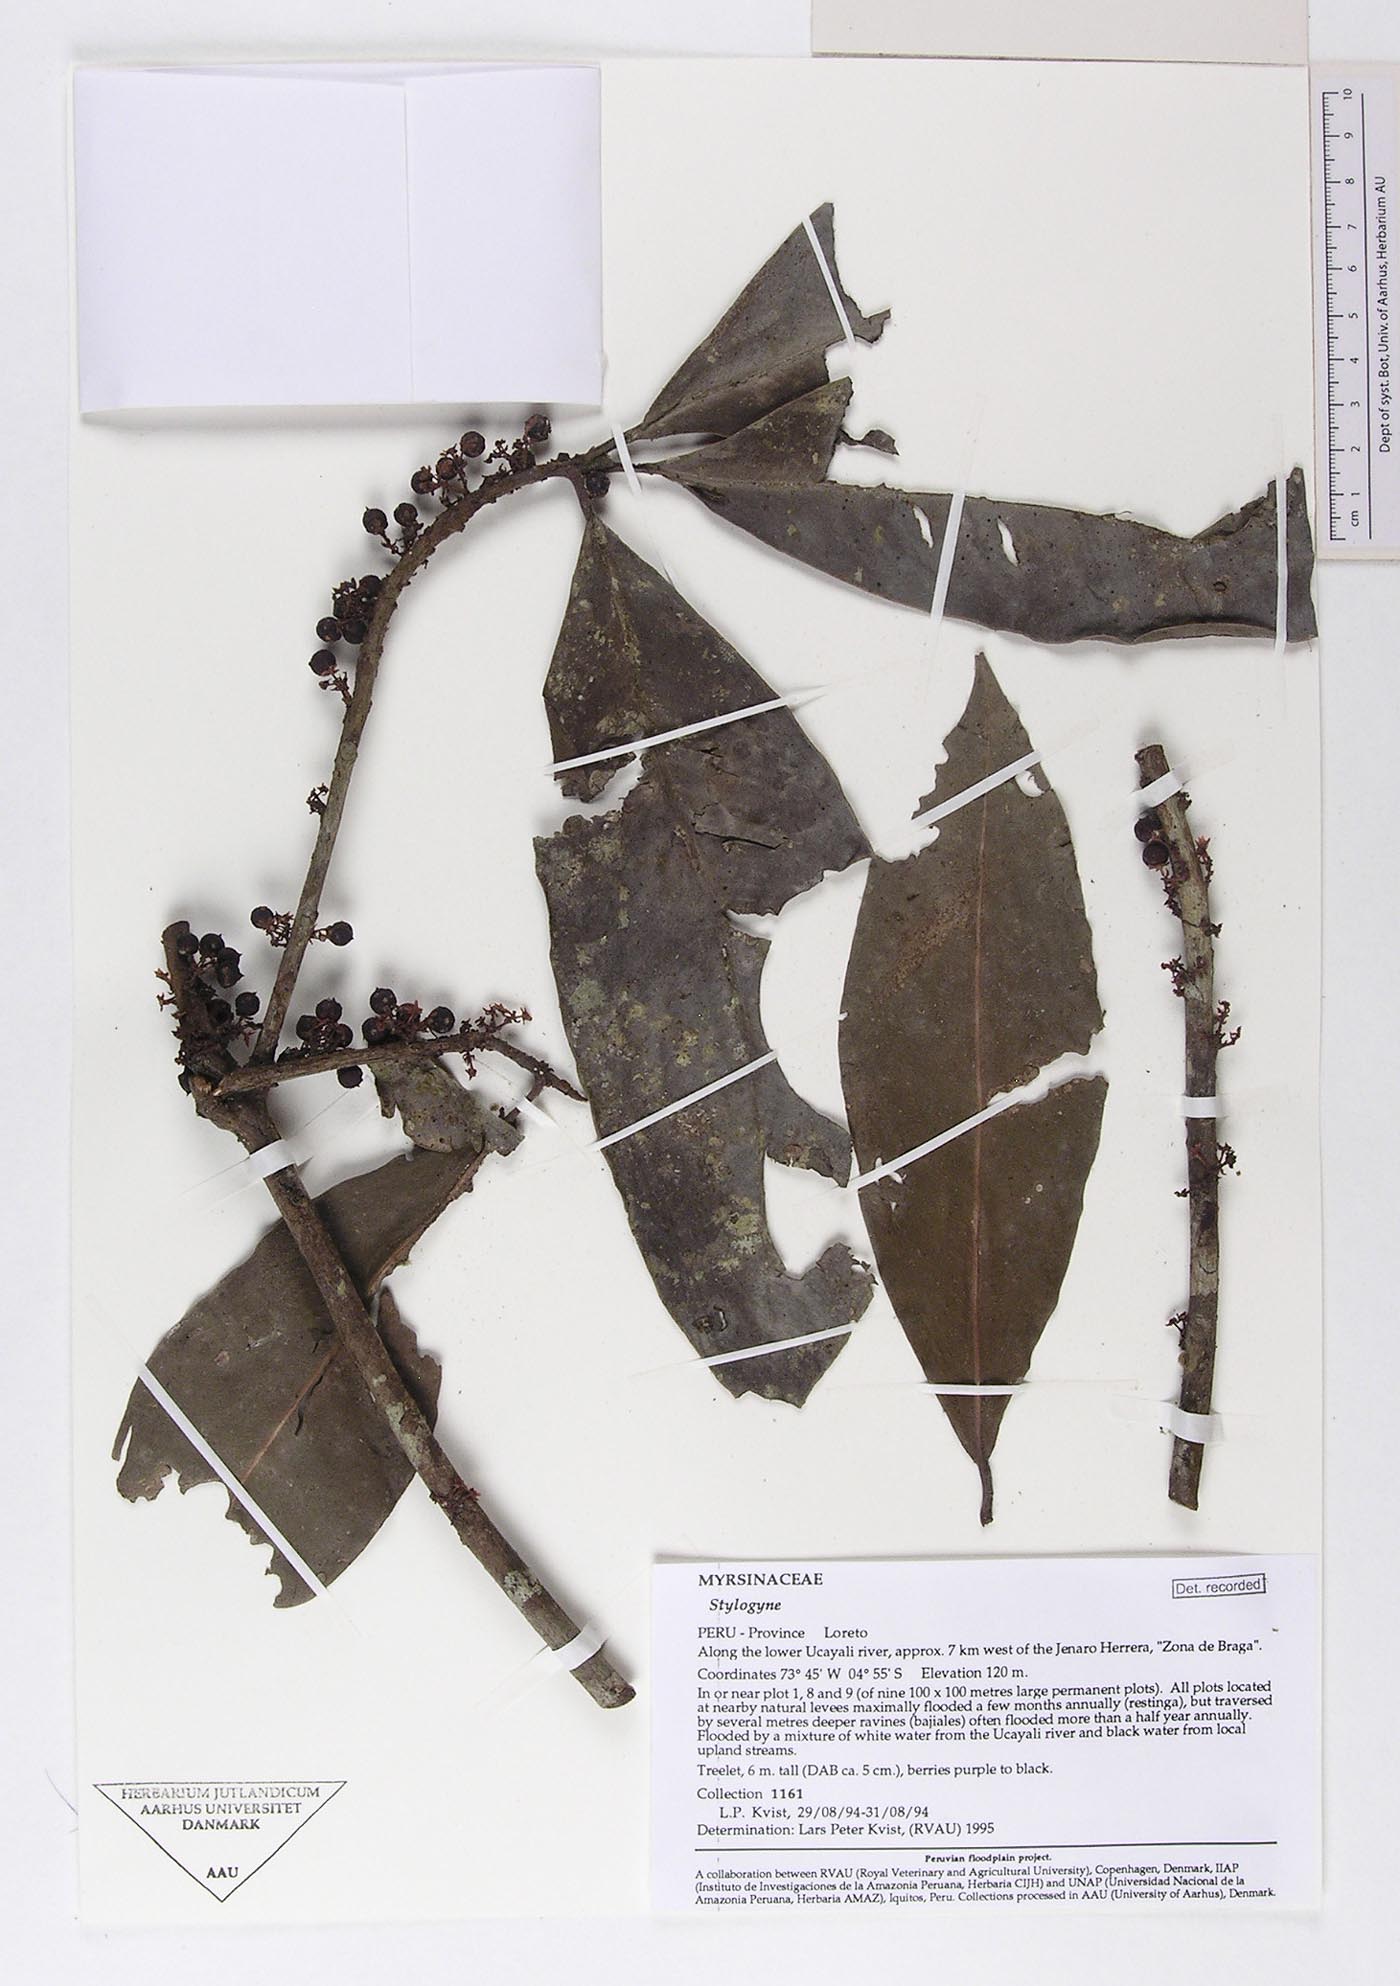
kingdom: Plantae
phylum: Tracheophyta
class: Magnoliopsida
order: Ericales
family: Primulaceae
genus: Stylogyne
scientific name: Stylogyne
